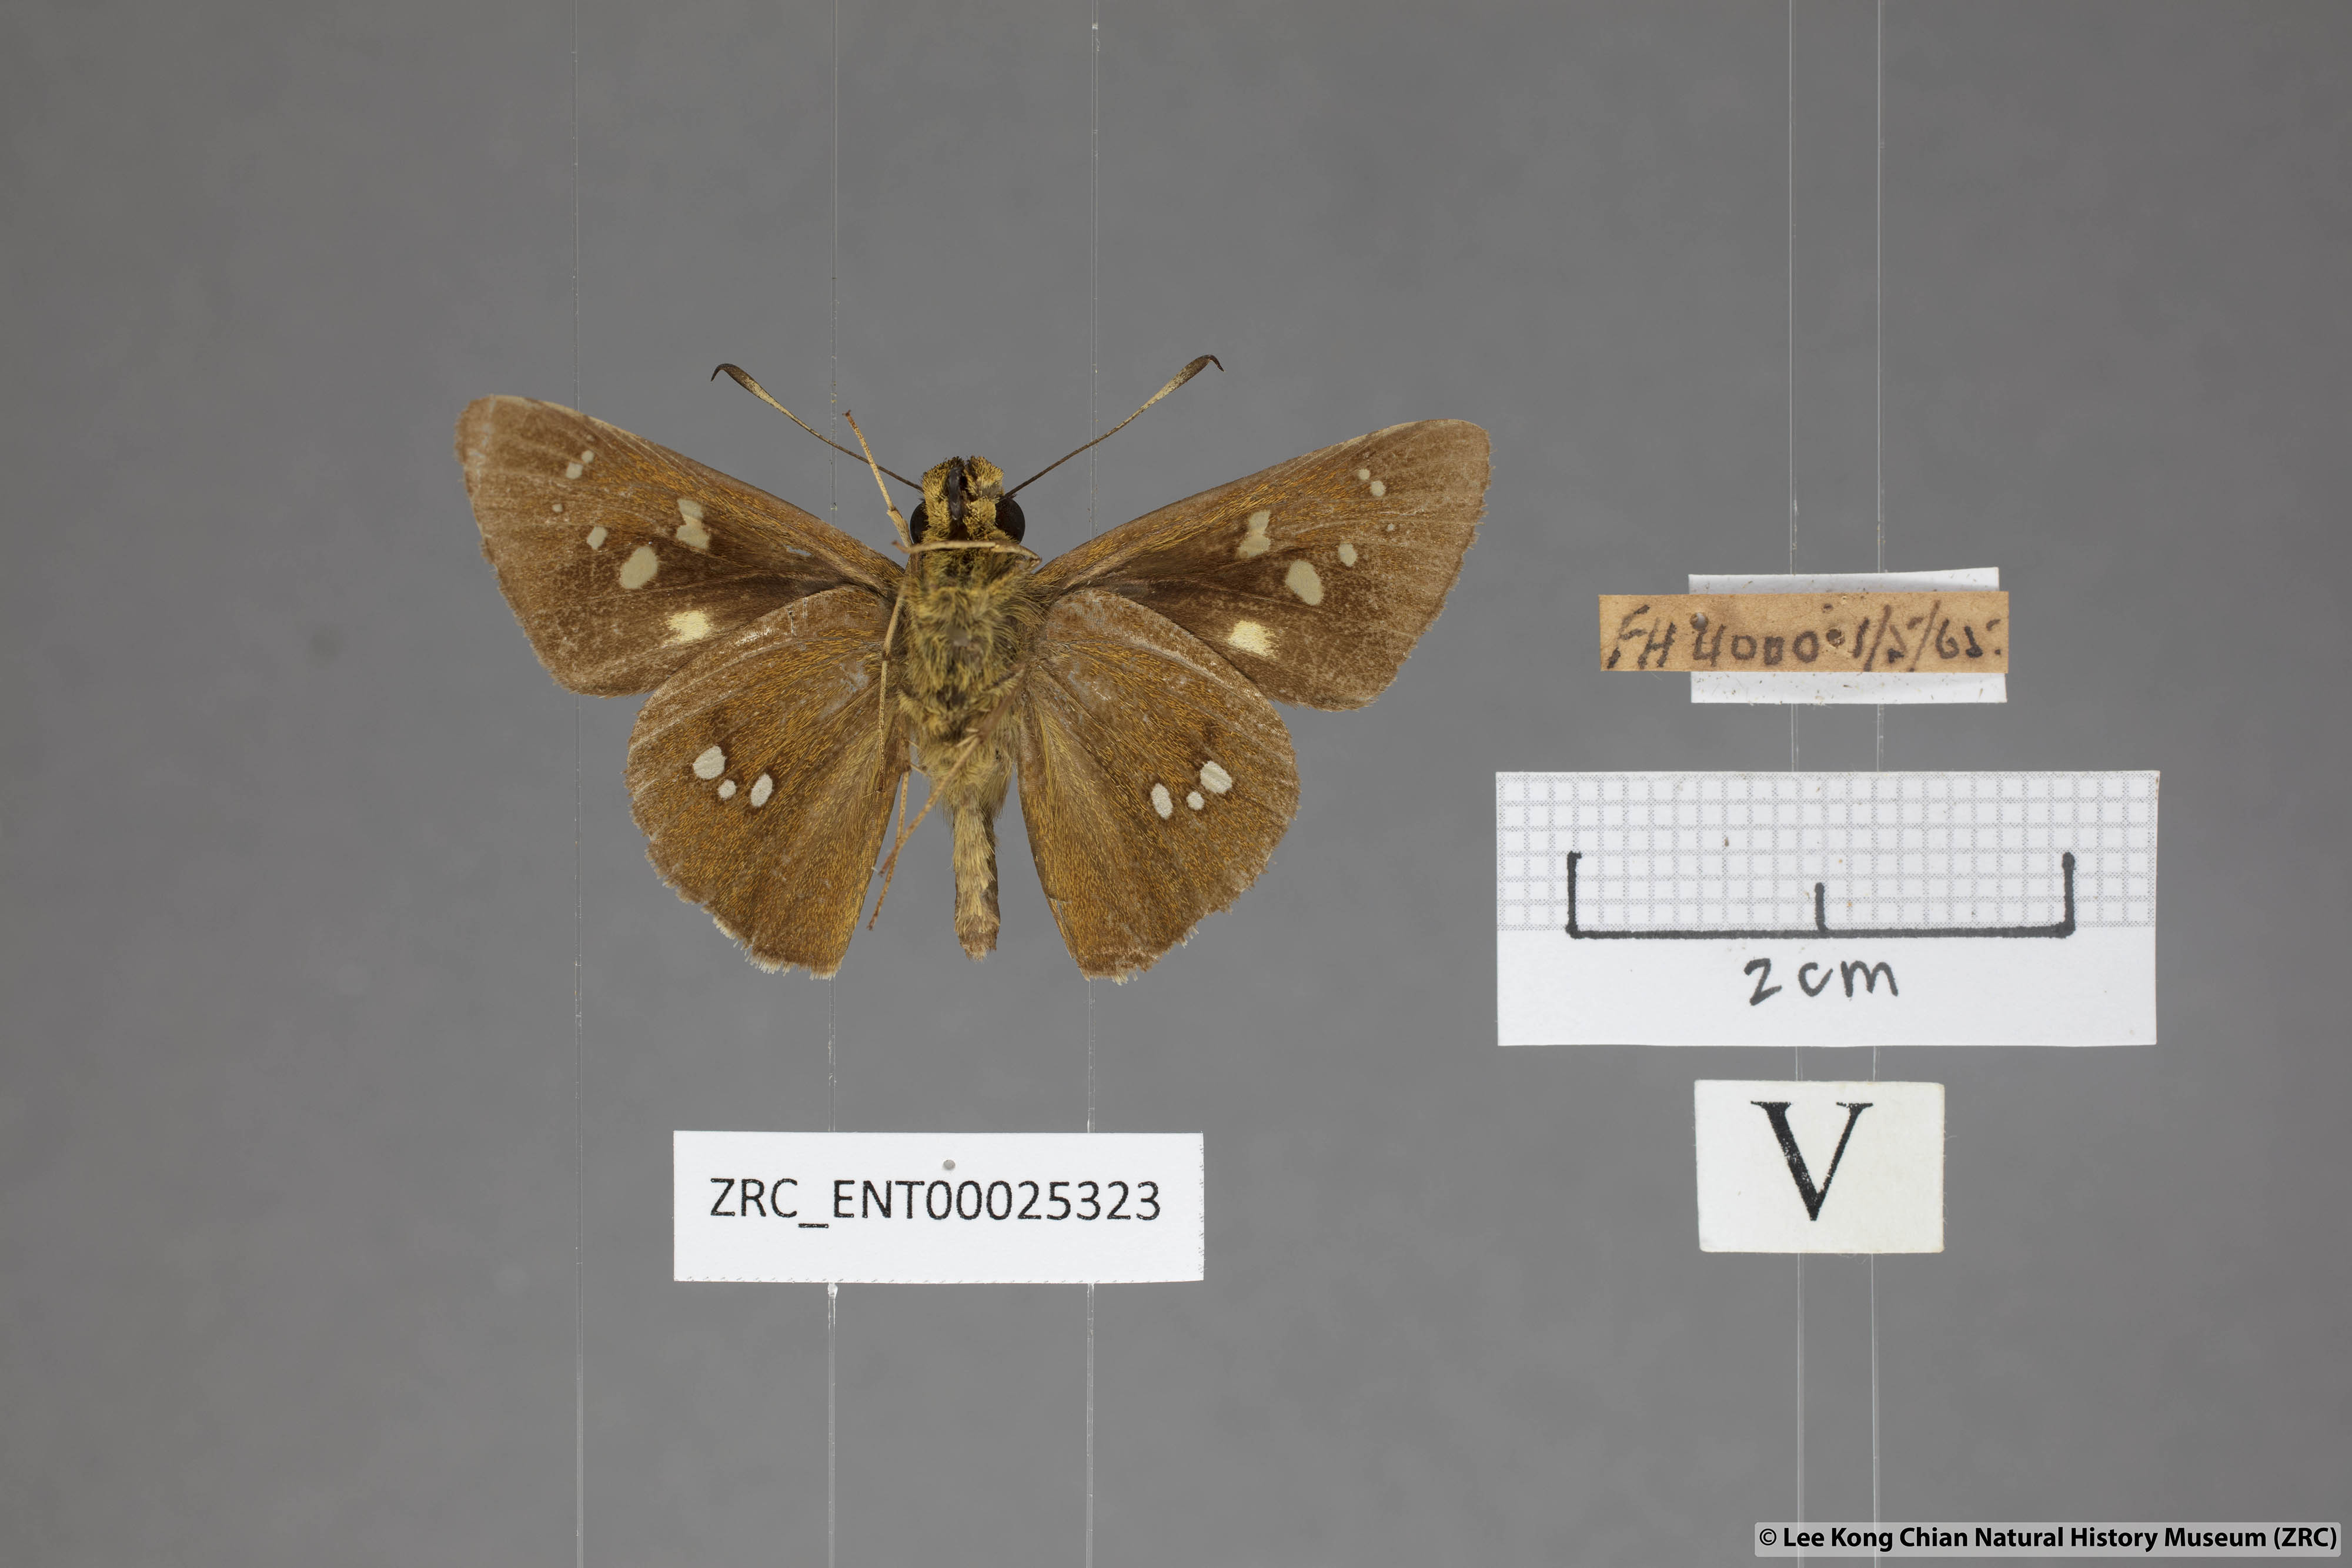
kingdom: Animalia
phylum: Arthropoda
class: Insecta
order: Lepidoptera
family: Hesperiidae
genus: Polytremis
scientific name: Polytremis eltola
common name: Yellow-spot swift
